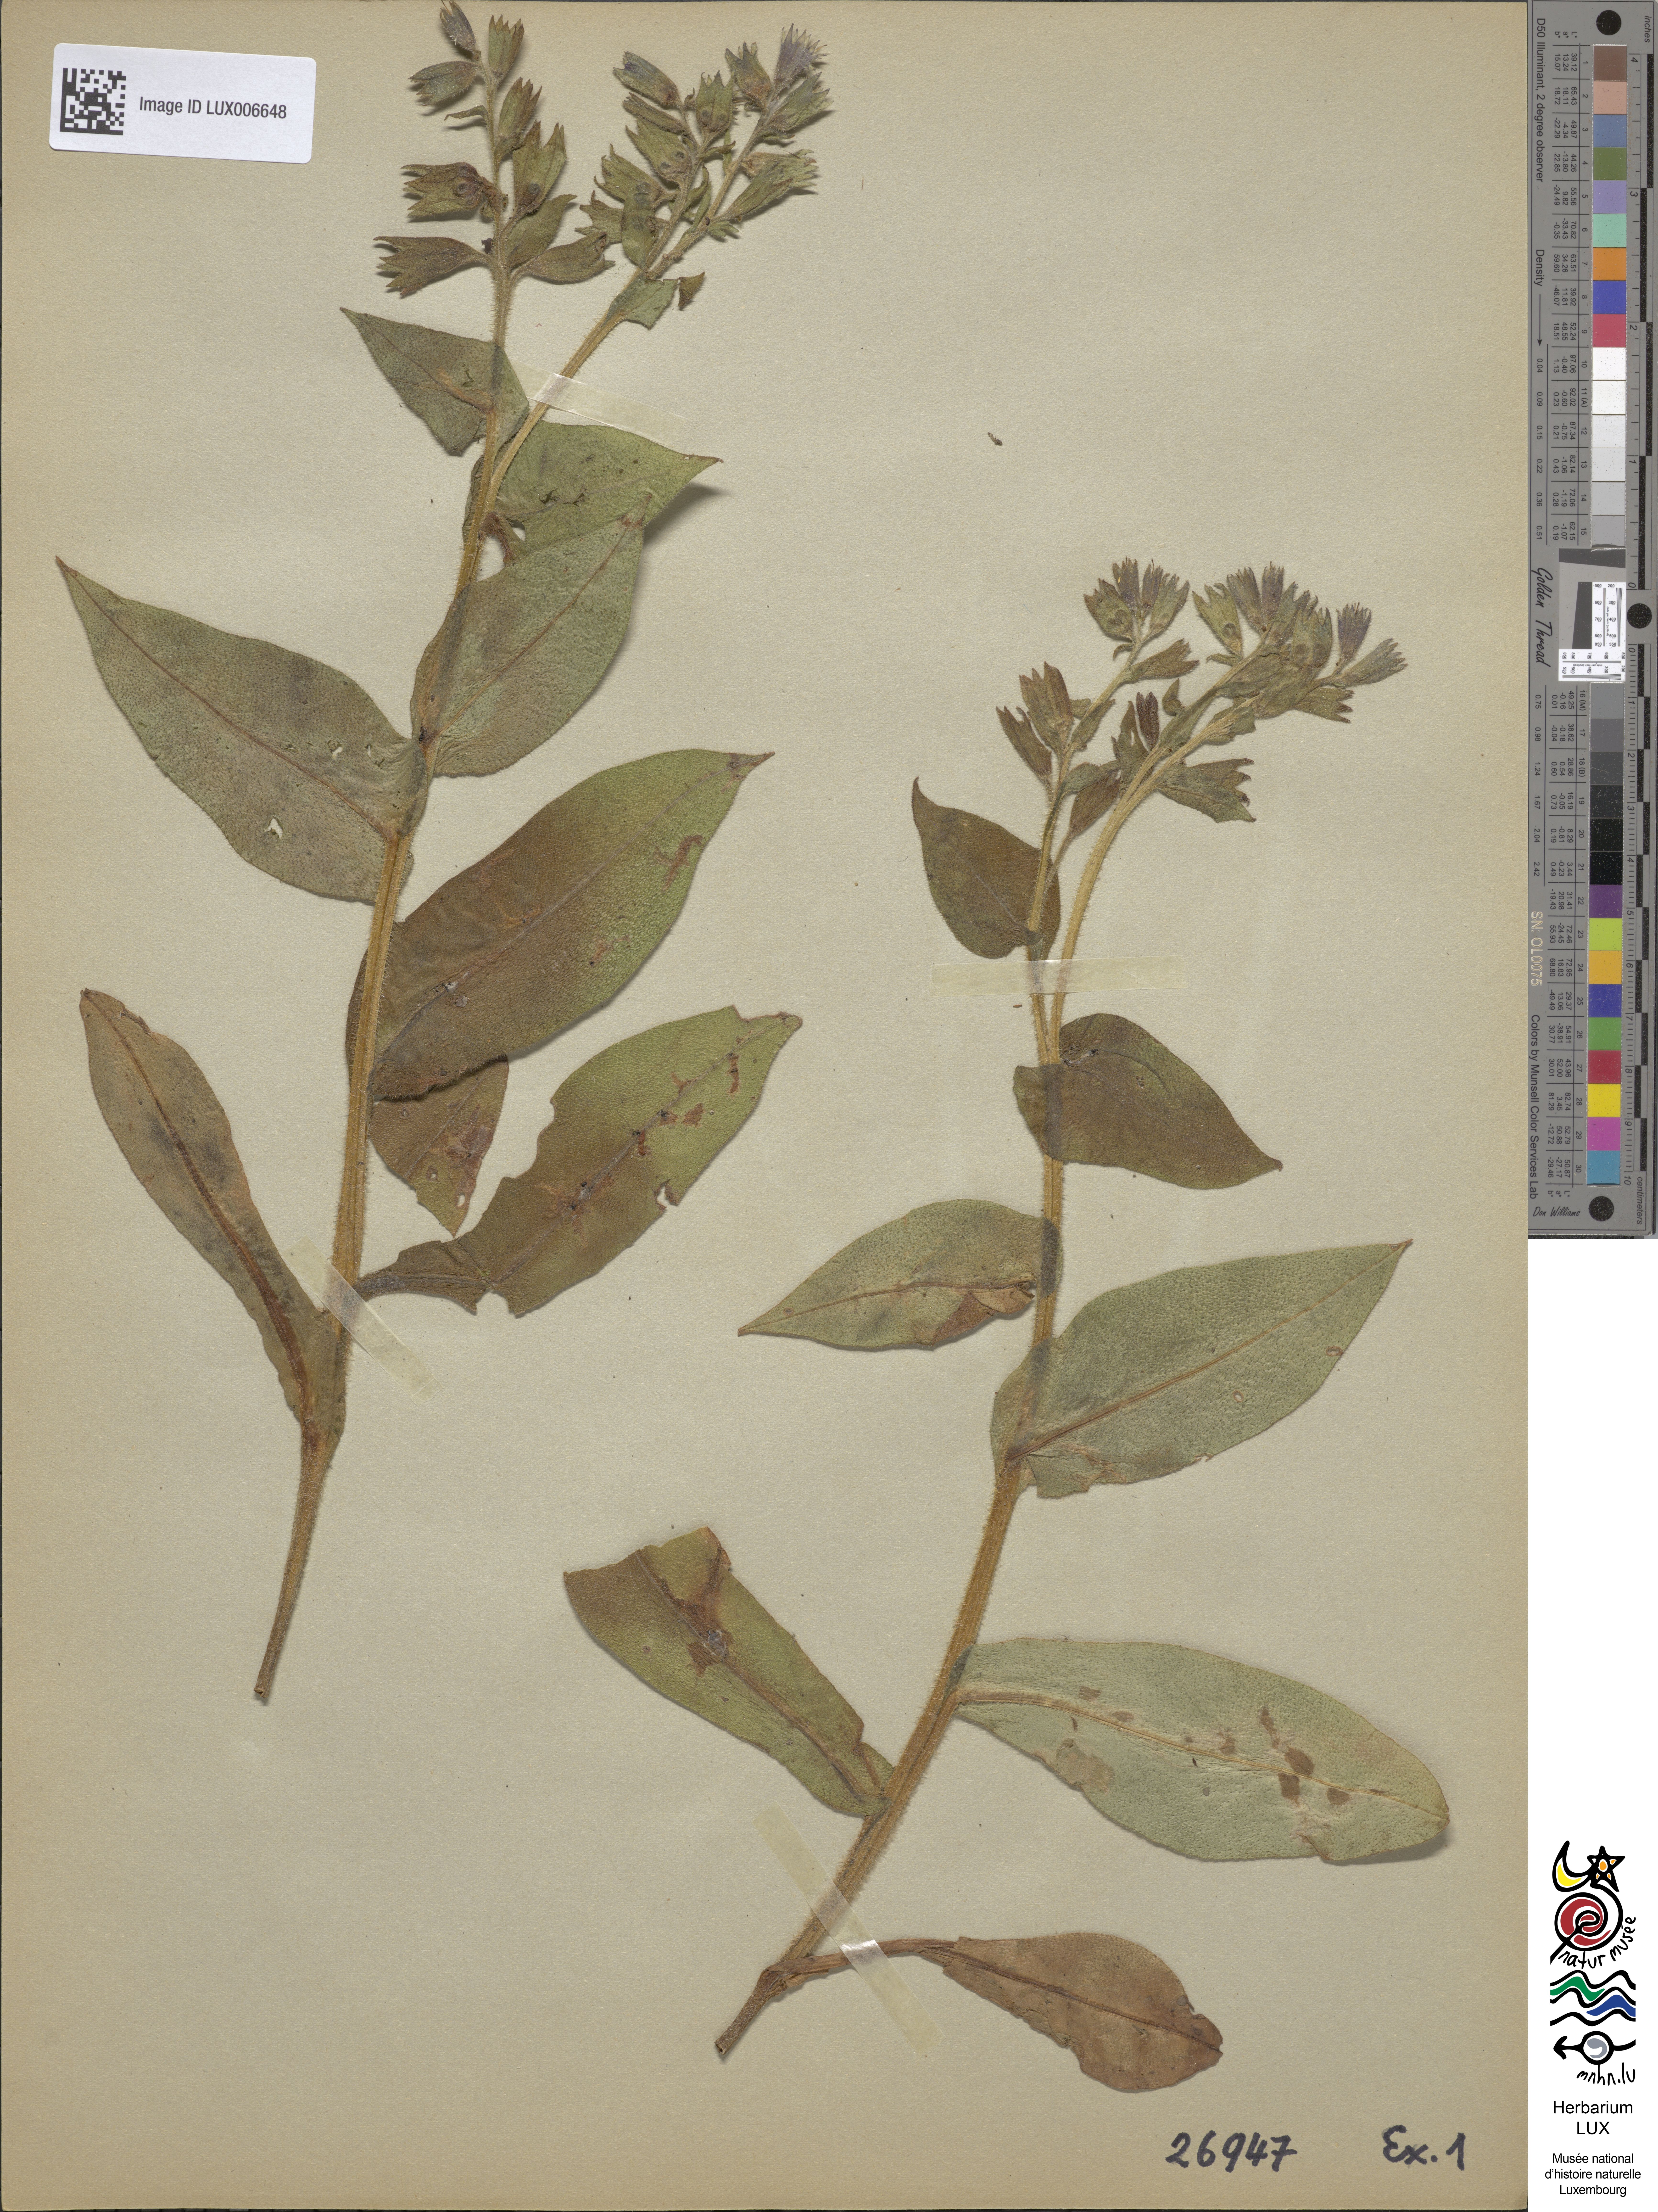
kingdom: Plantae
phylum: Tracheophyta
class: Magnoliopsida
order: Boraginales
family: Boraginaceae
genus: Pulmonaria
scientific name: Pulmonaria montana
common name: Mountain lungwort
